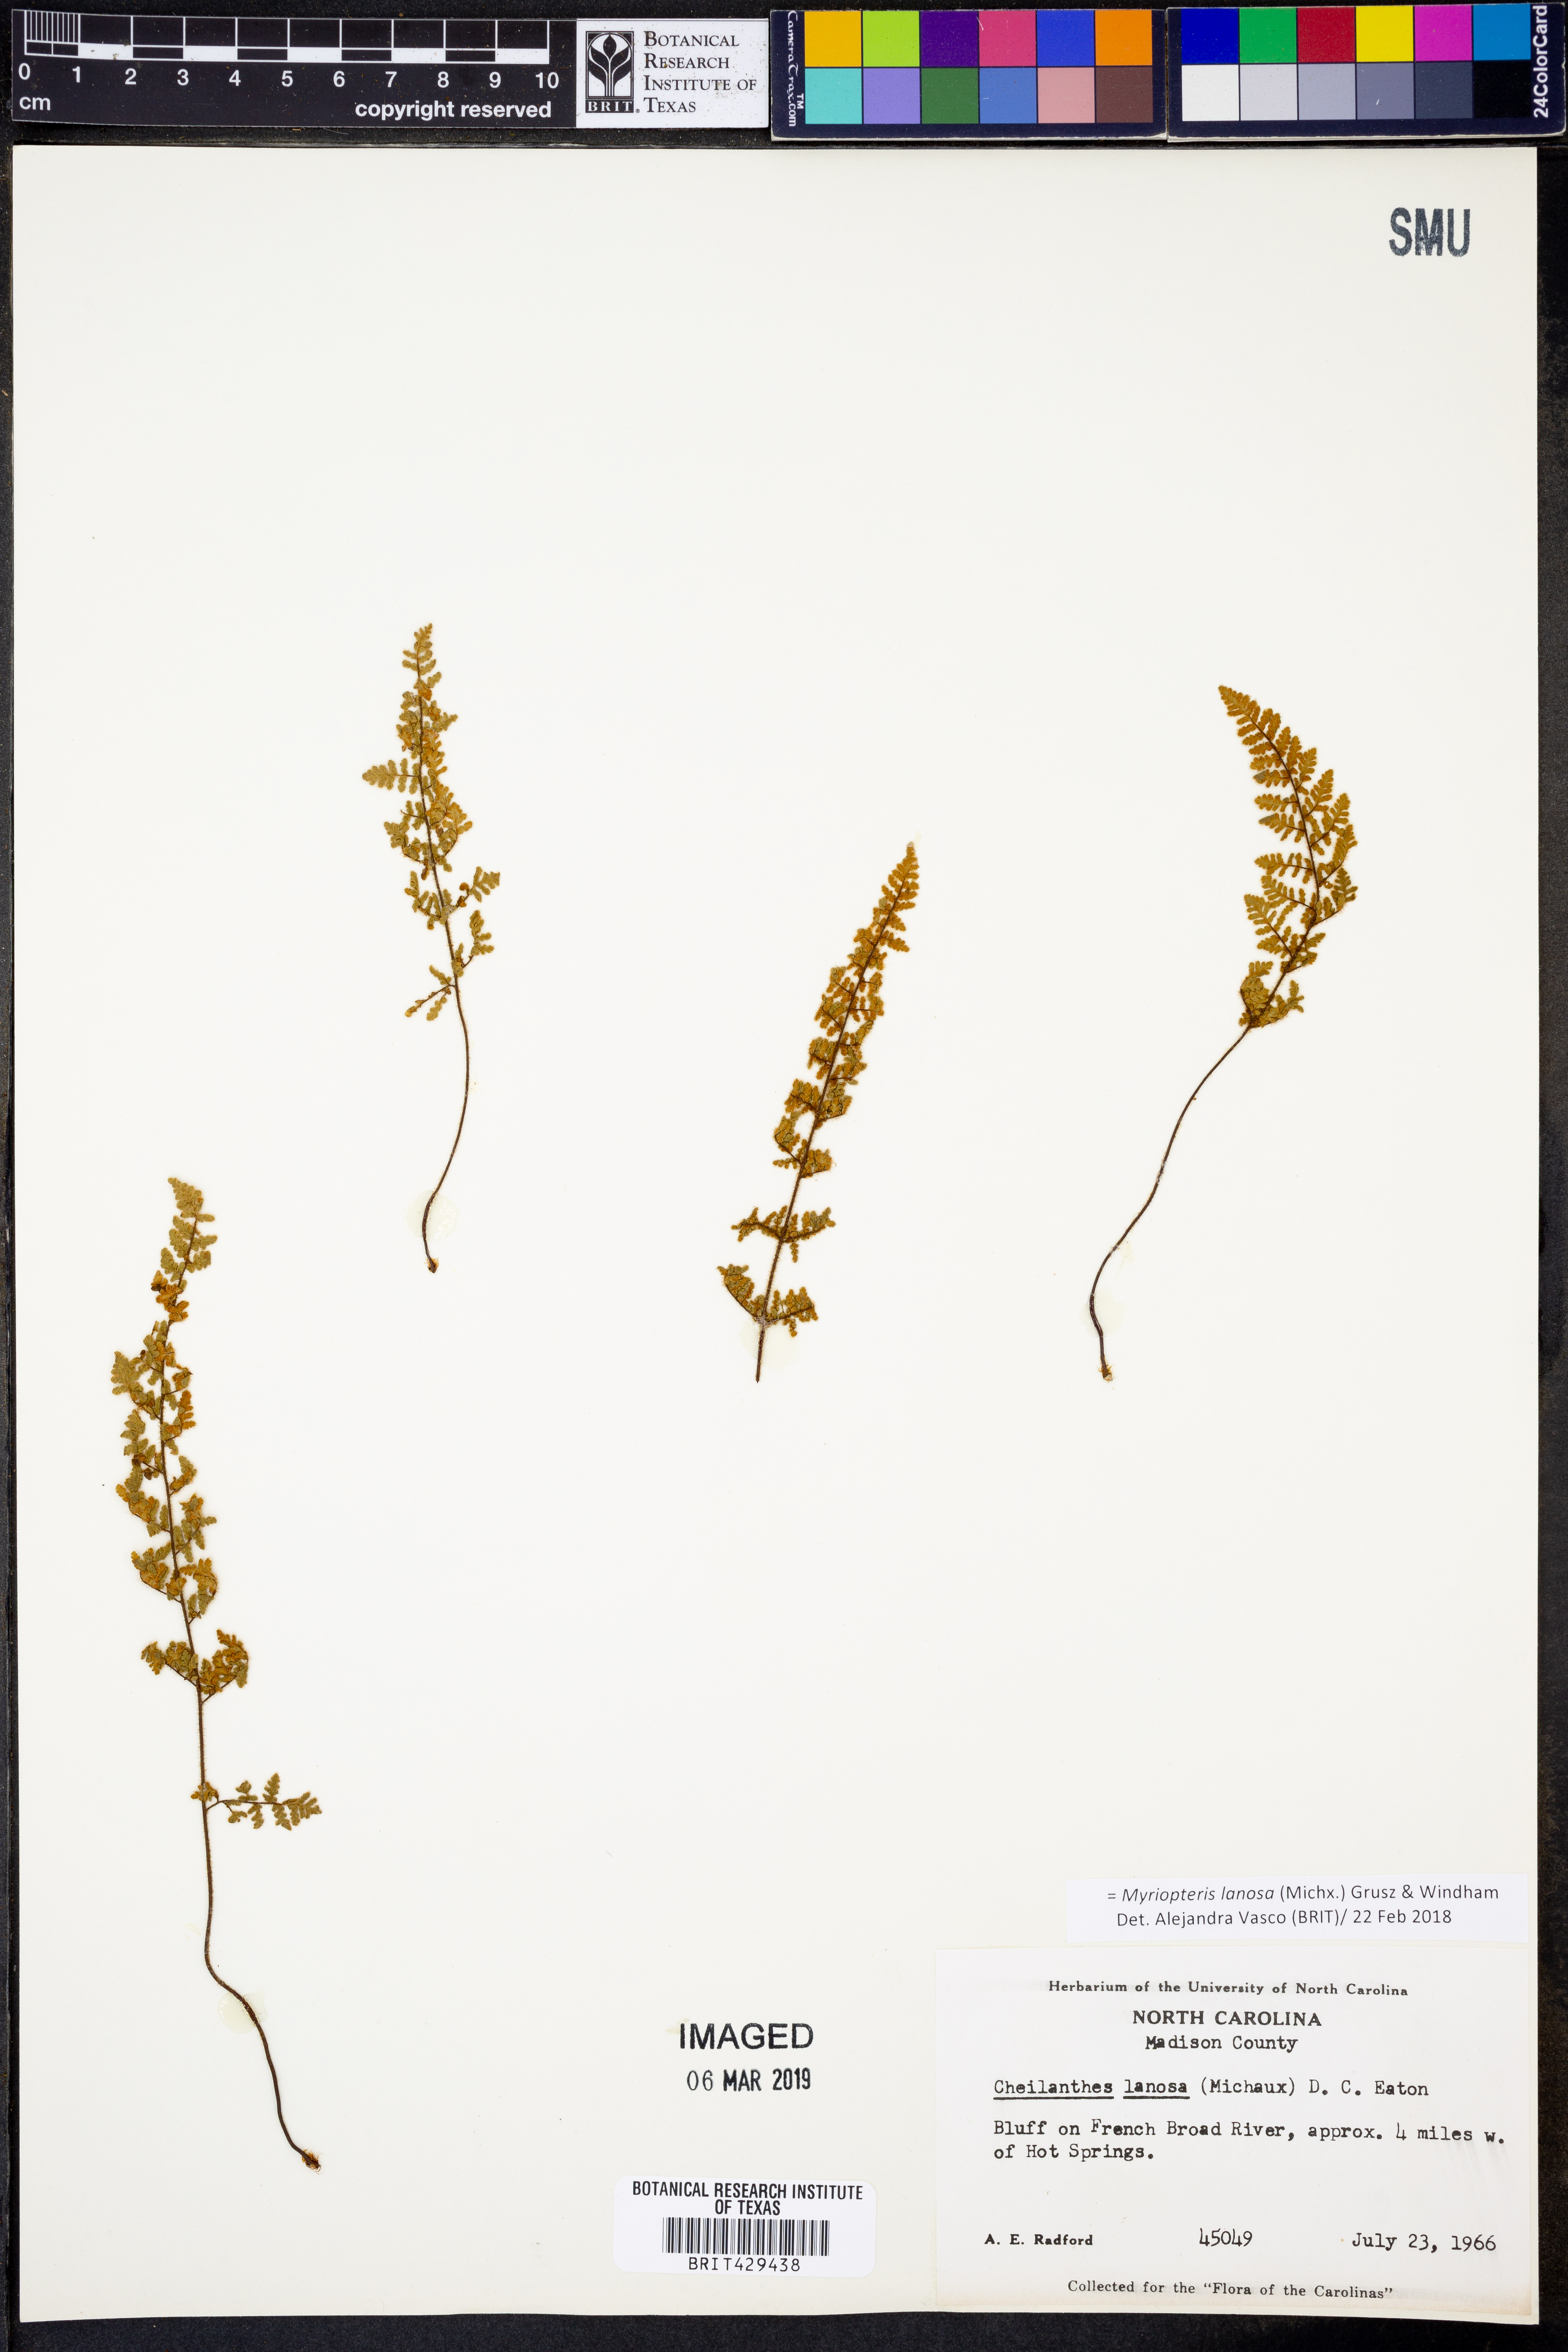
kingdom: Plantae
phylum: Tracheophyta
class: Polypodiopsida
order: Polypodiales
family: Pteridaceae
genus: Myriopteris
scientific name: Myriopteris lanosa
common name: Hairy lip fern
